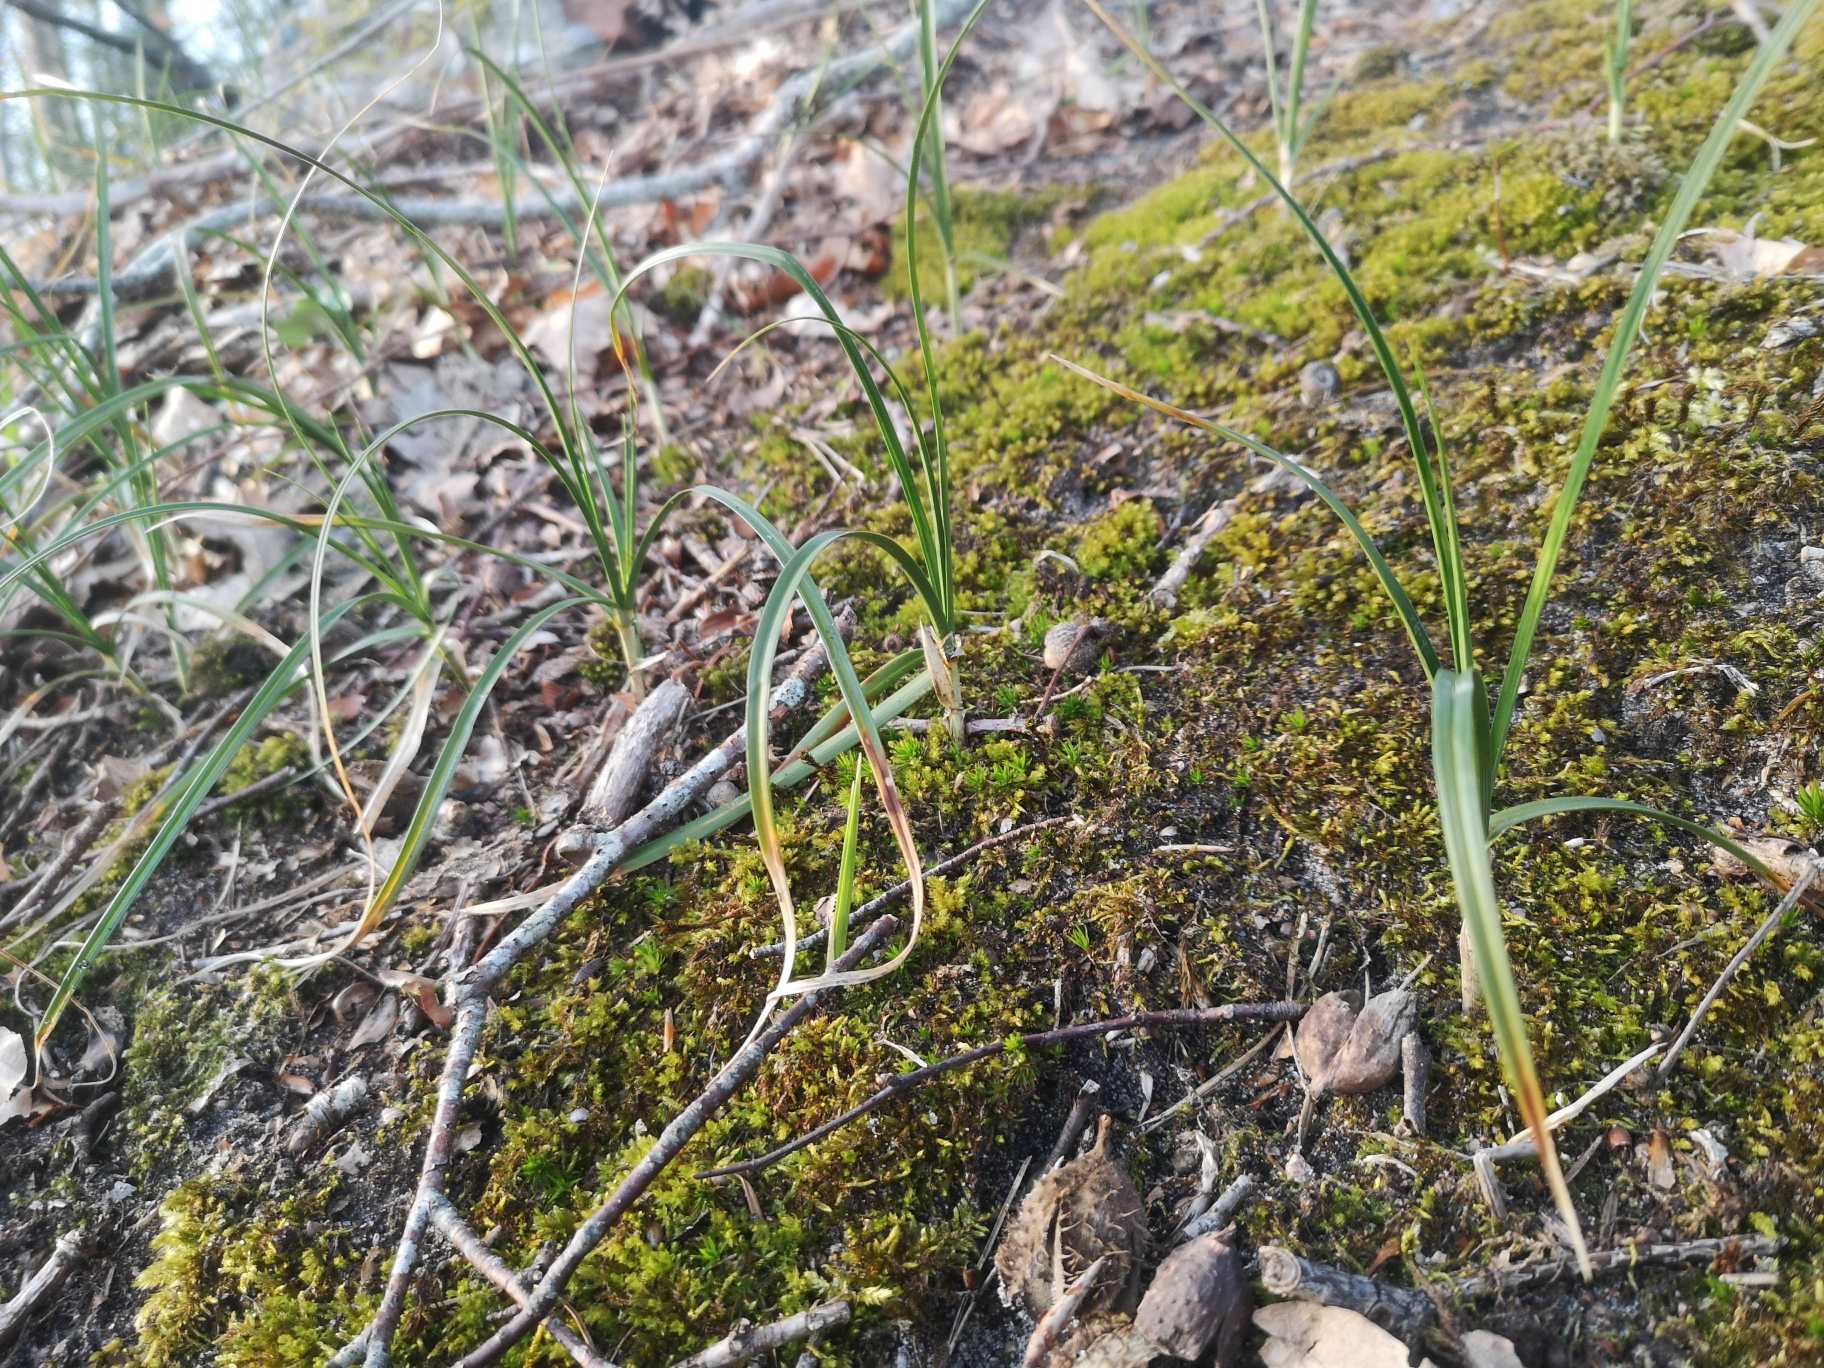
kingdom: Plantae
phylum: Tracheophyta
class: Liliopsida
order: Poales
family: Cyperaceae
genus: Carex
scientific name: Carex arenaria
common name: Sand-star
